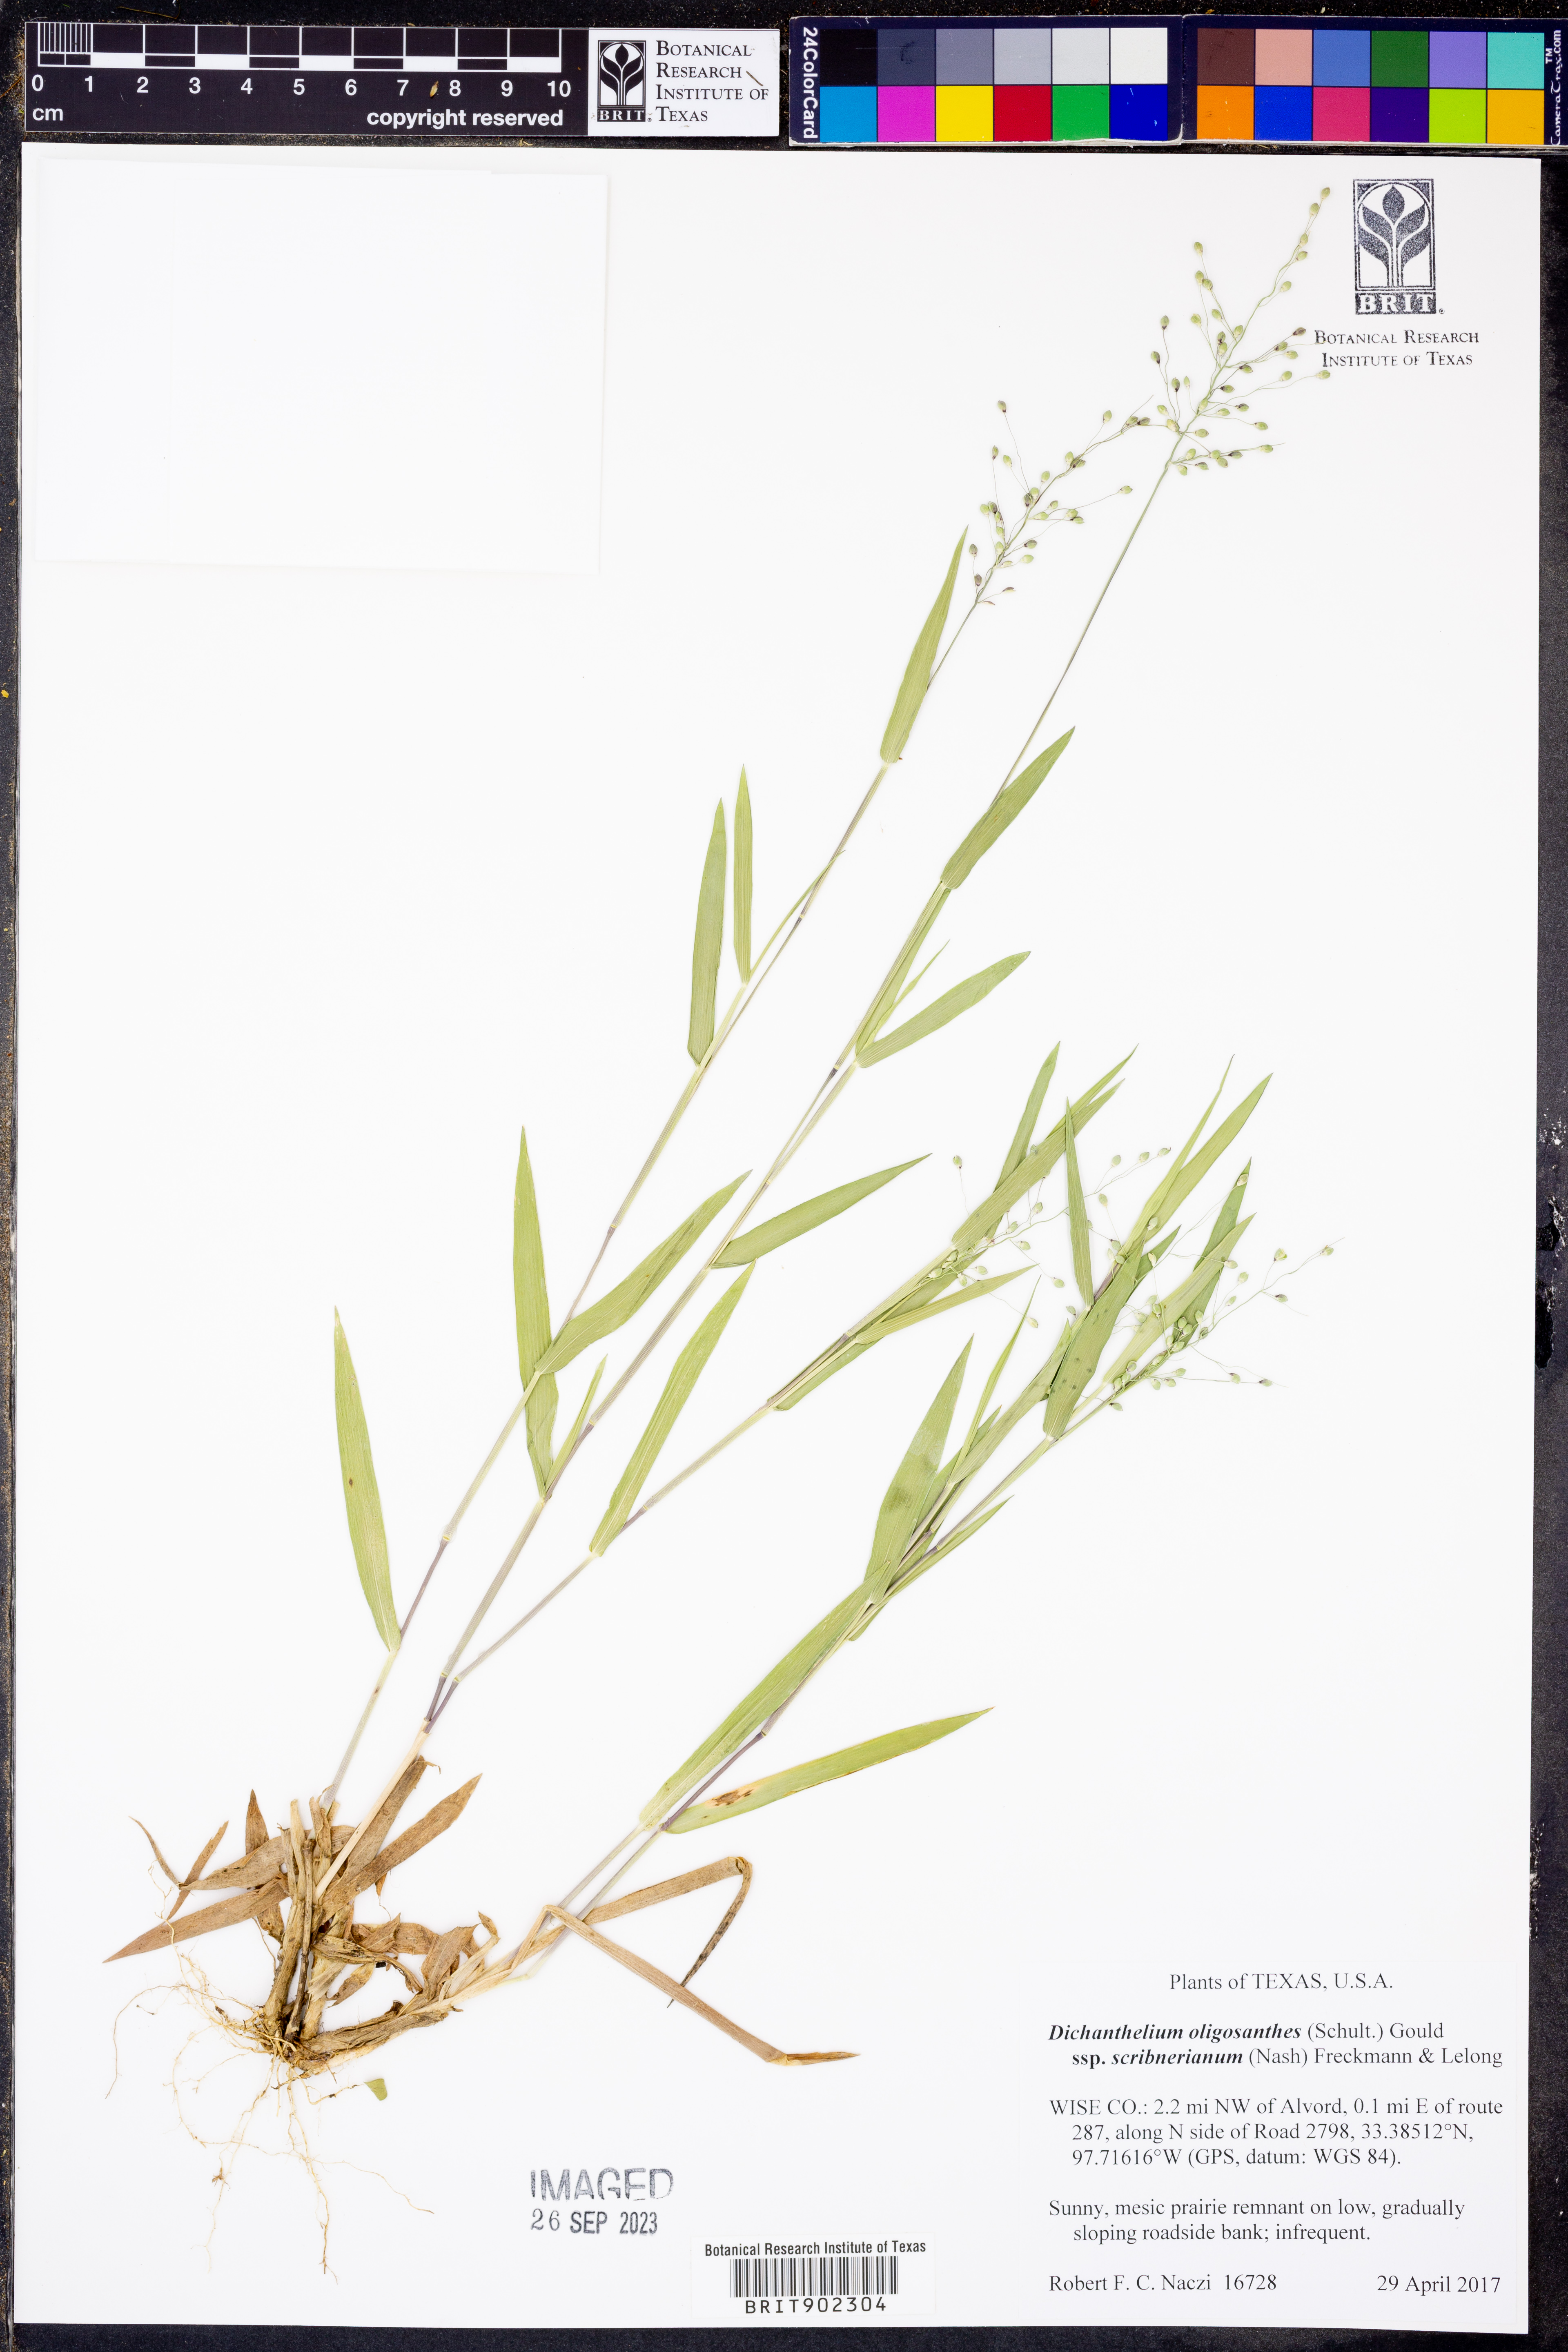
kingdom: Plantae
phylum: Tracheophyta
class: Liliopsida
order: Poales
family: Poaceae
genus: Dichanthelium
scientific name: Dichanthelium scribnerianum
